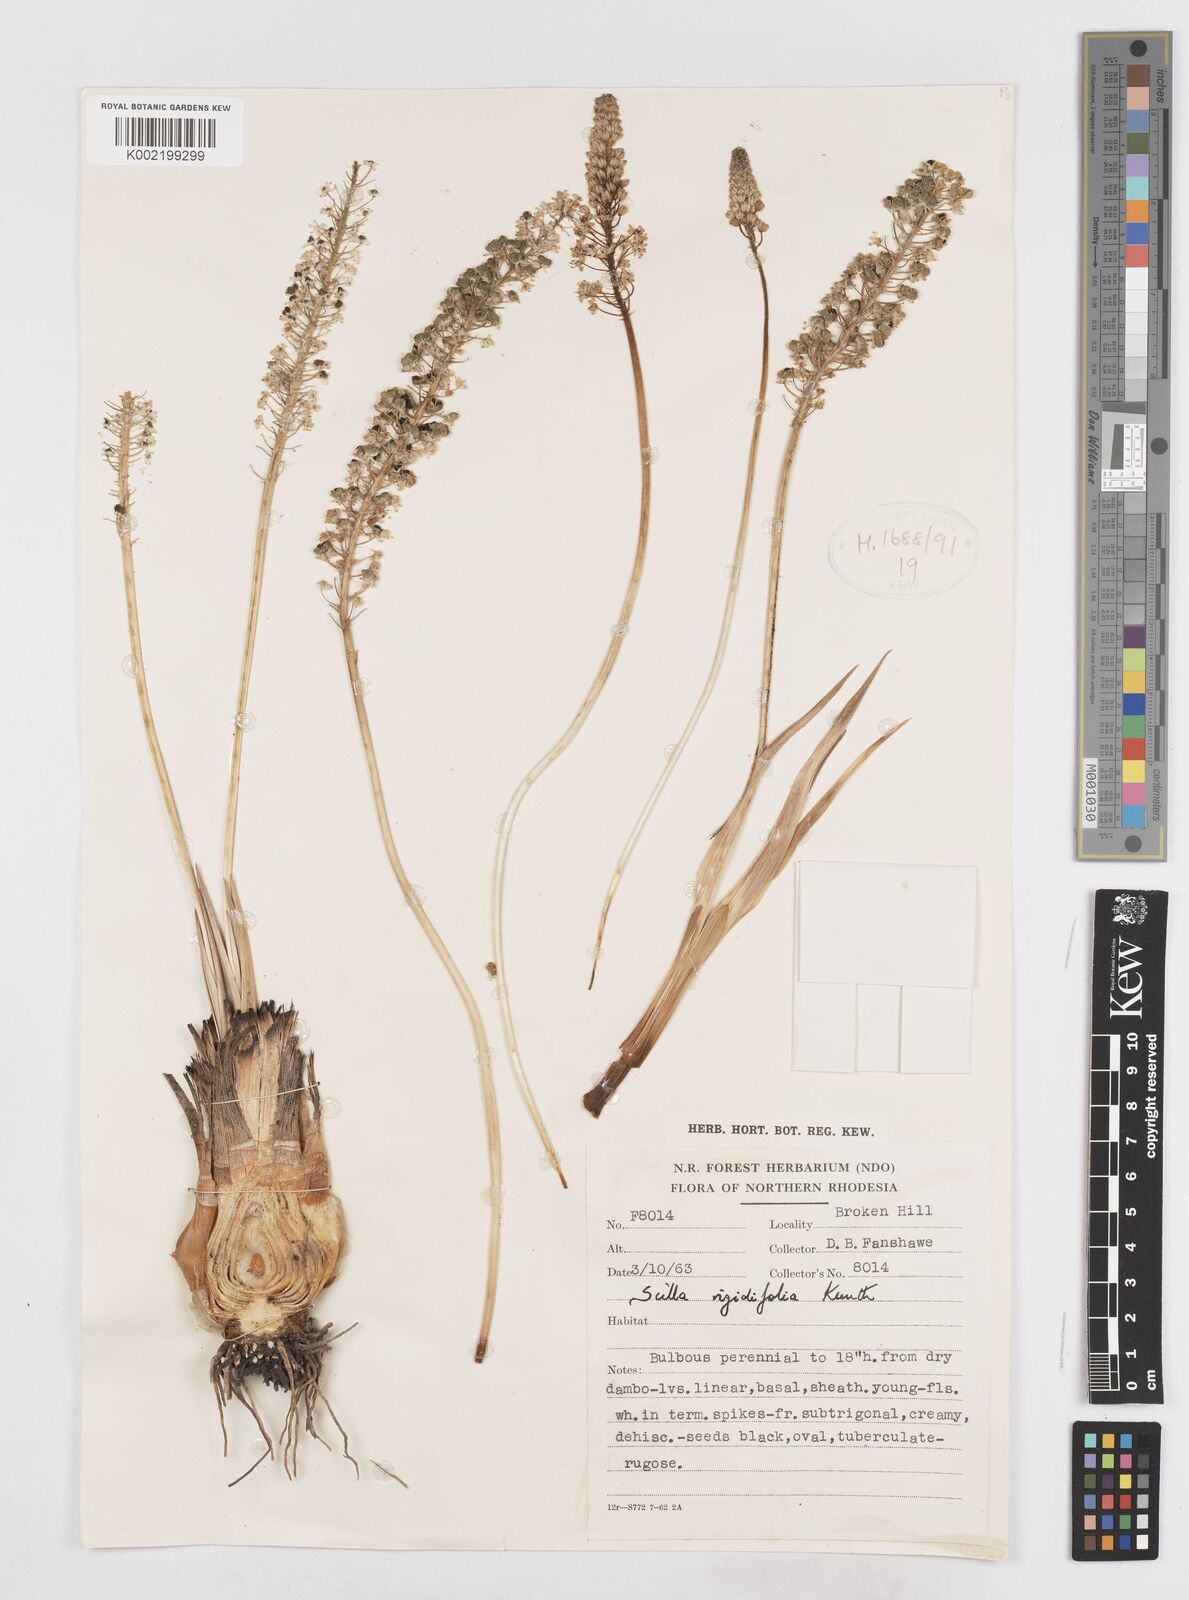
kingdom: Plantae
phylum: Tracheophyta
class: Liliopsida
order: Asparagales
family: Asparagaceae
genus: Schizocarphus
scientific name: Schizocarphus nervosus
